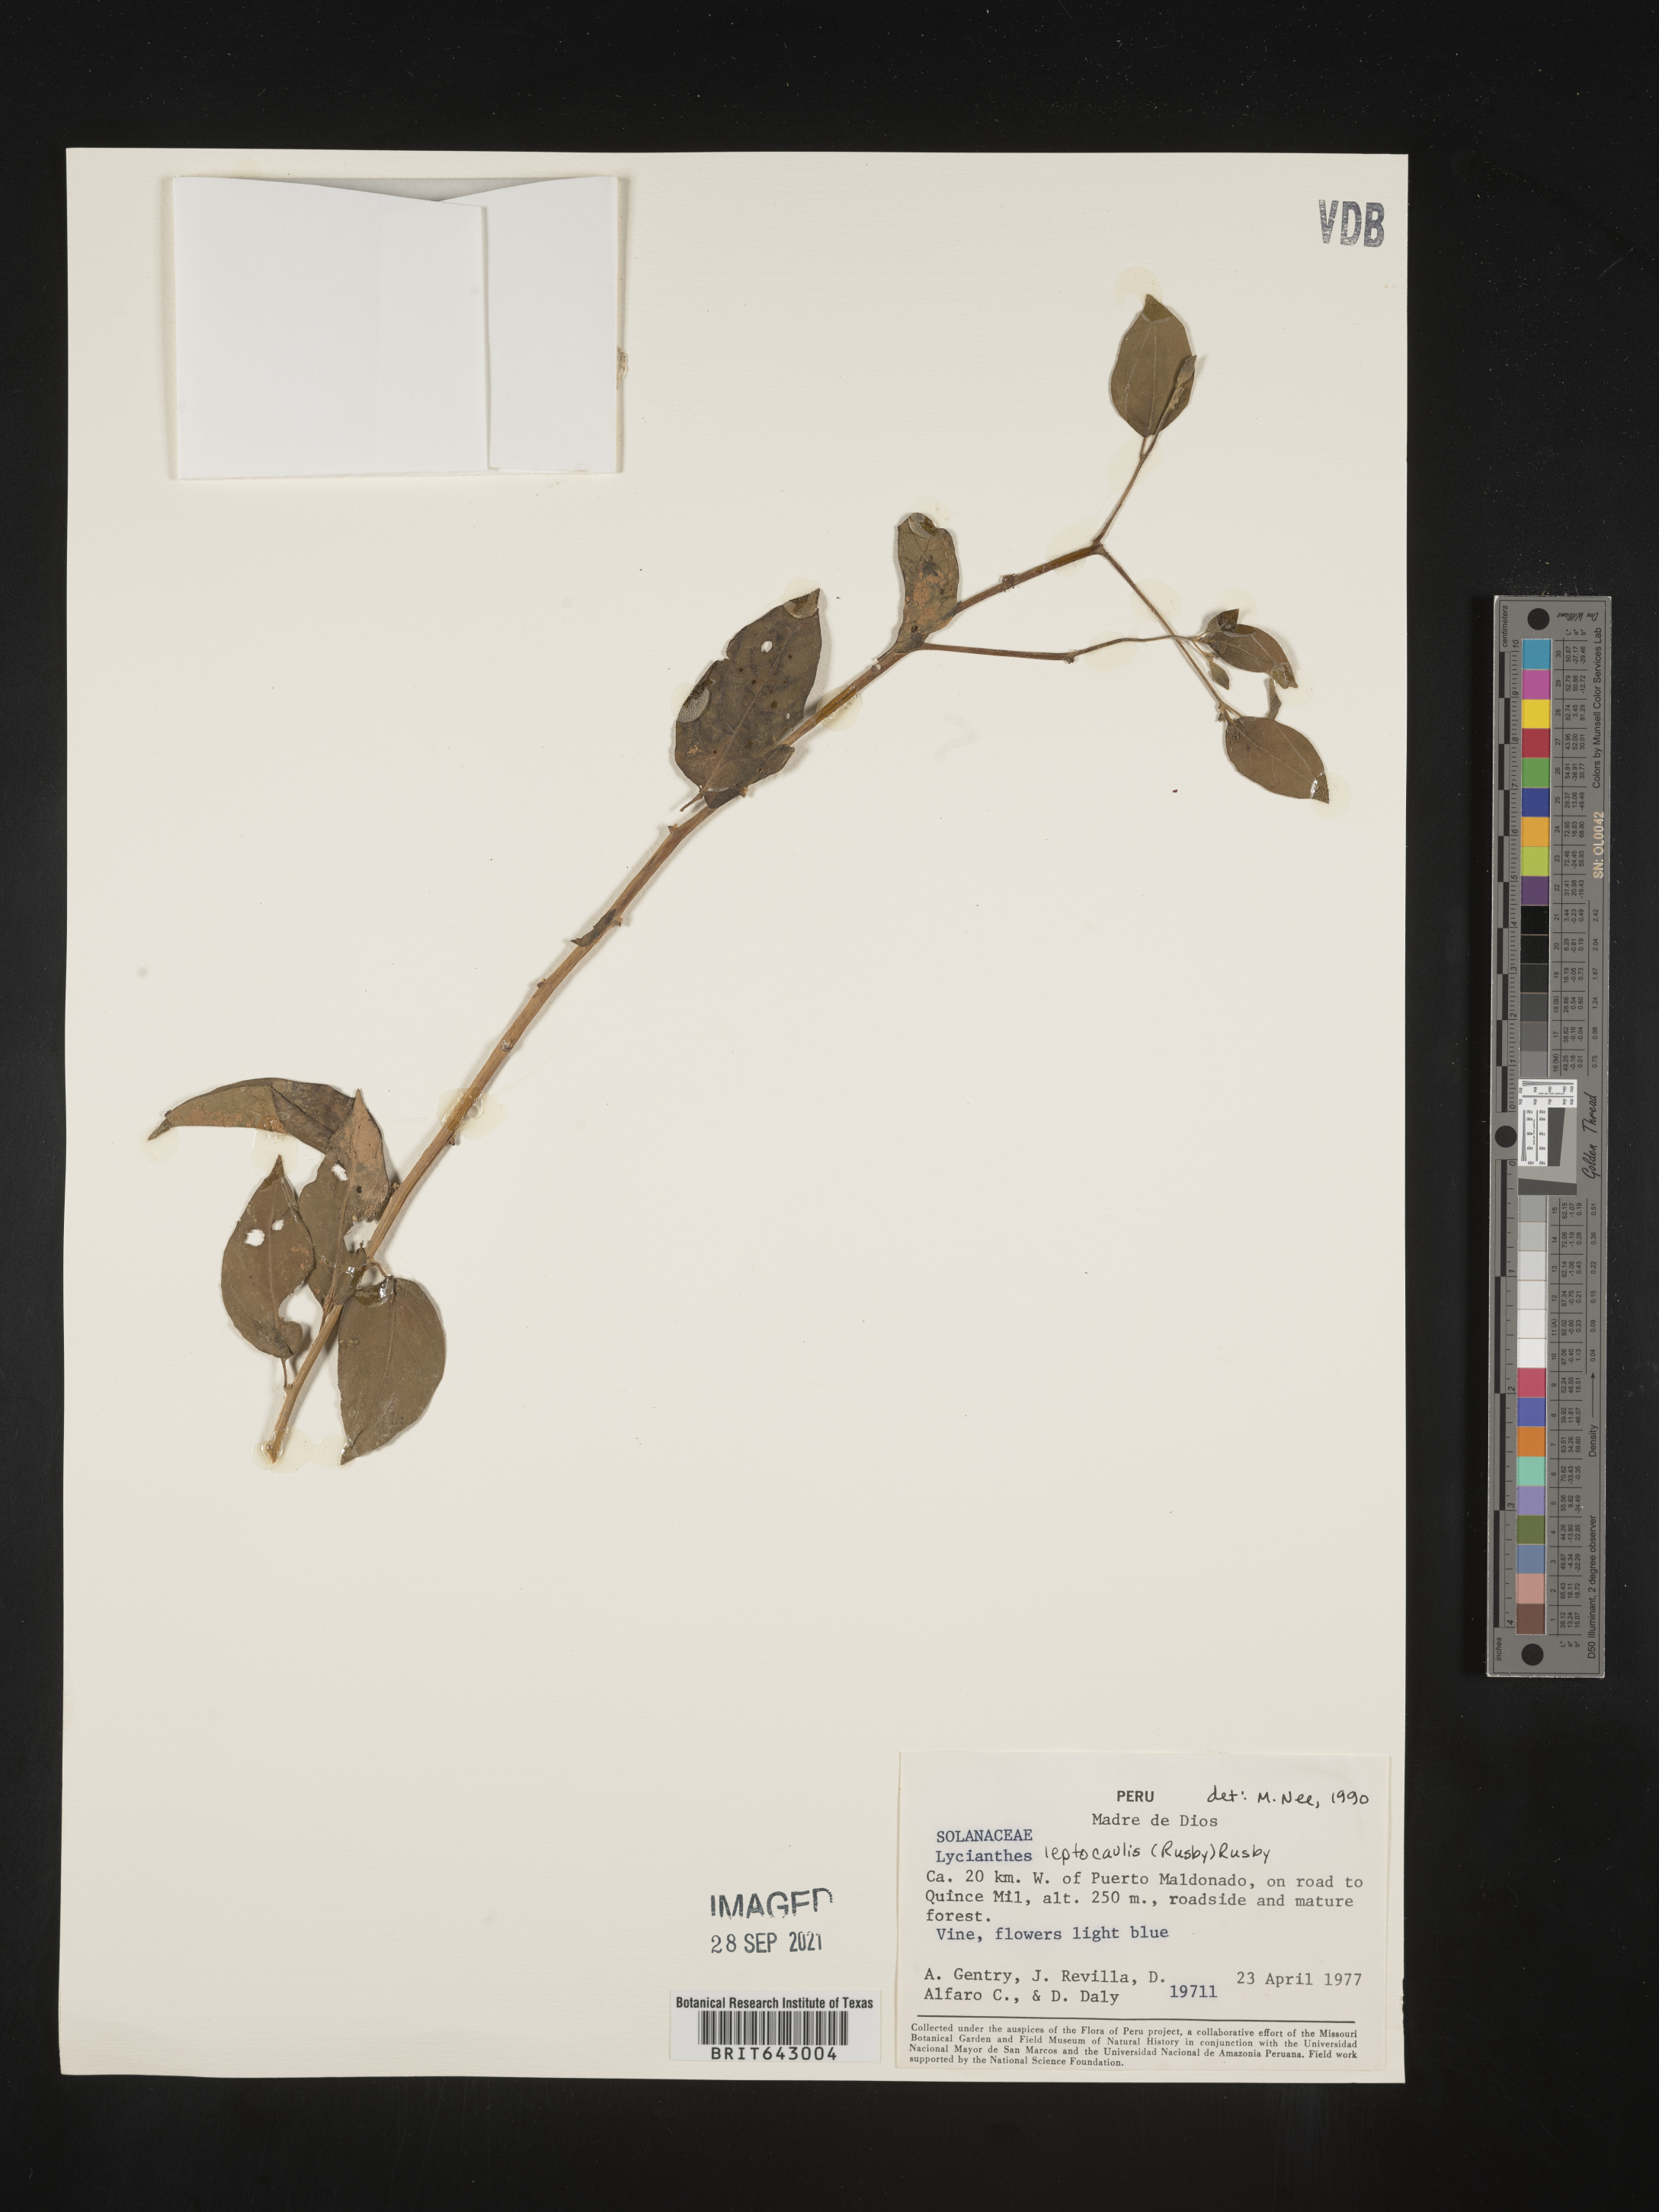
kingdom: Plantae
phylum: Tracheophyta
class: Magnoliopsida
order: Solanales
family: Solanaceae
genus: Lycianthes
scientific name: Lycianthes
